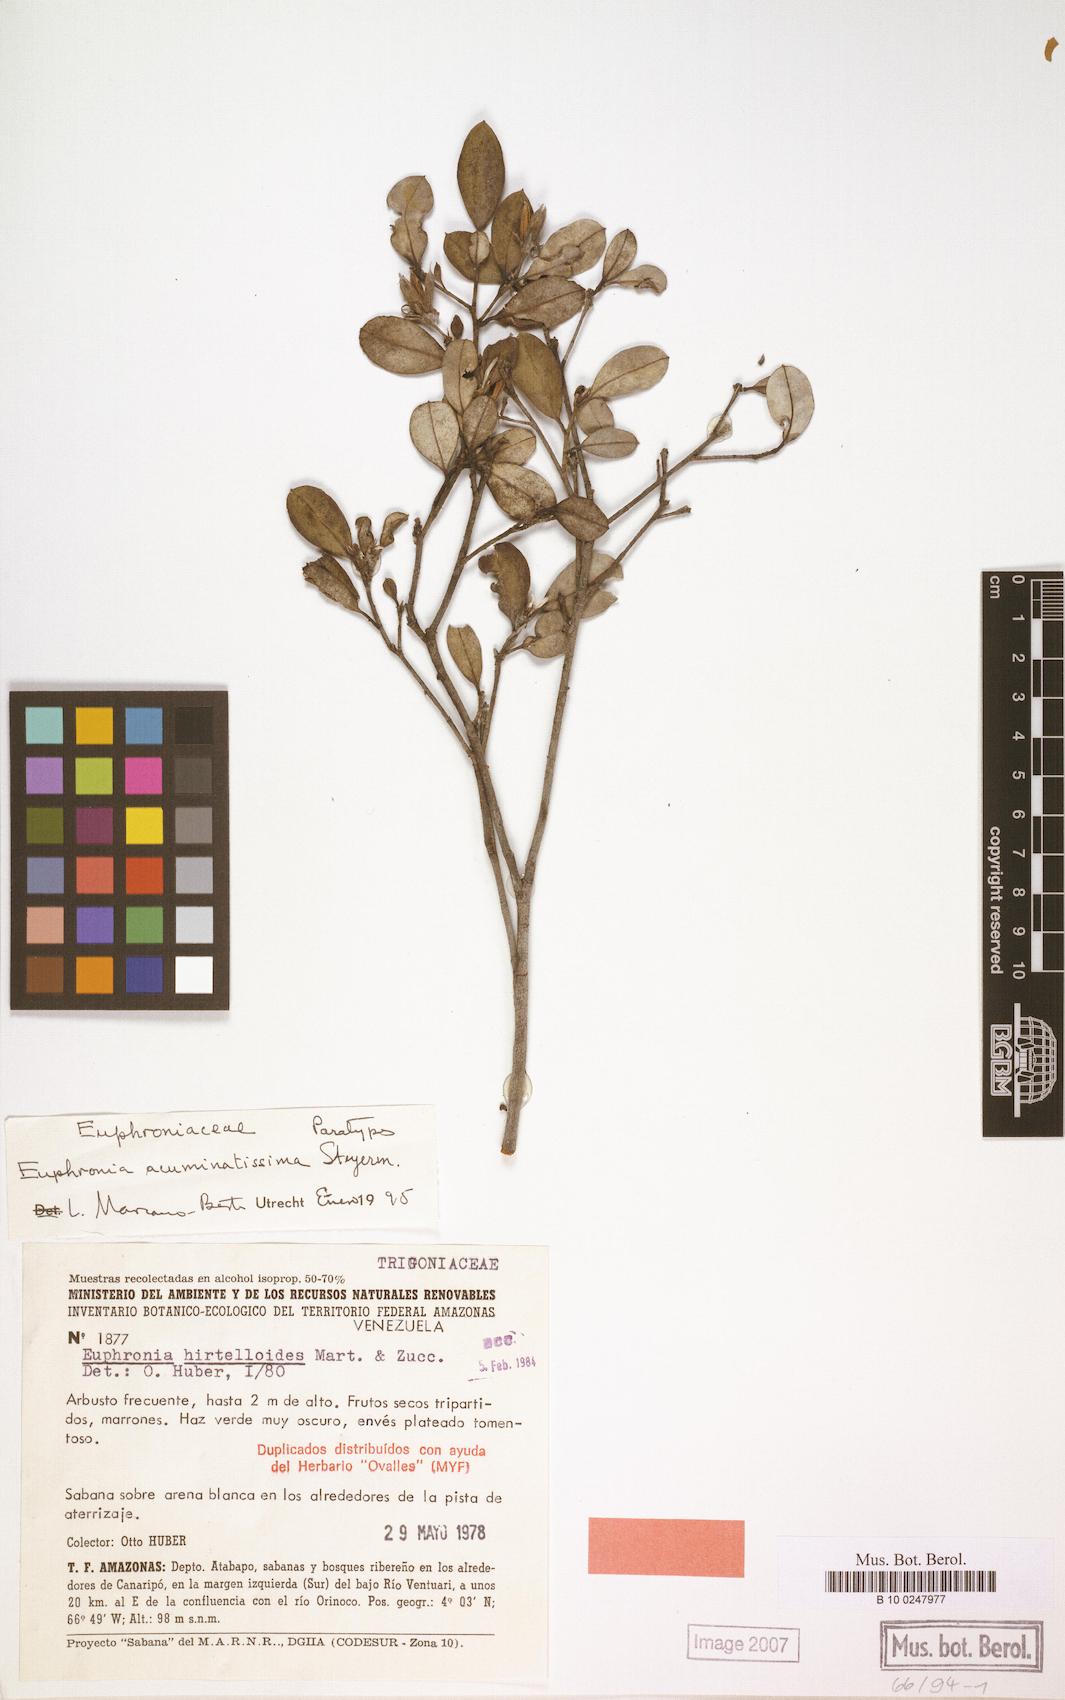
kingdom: Plantae
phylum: Tracheophyta
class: Magnoliopsida
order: Malpighiales
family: Euphroniaceae
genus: Euphronia
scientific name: Euphronia acuminatissima
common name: Acuminate euphronia
